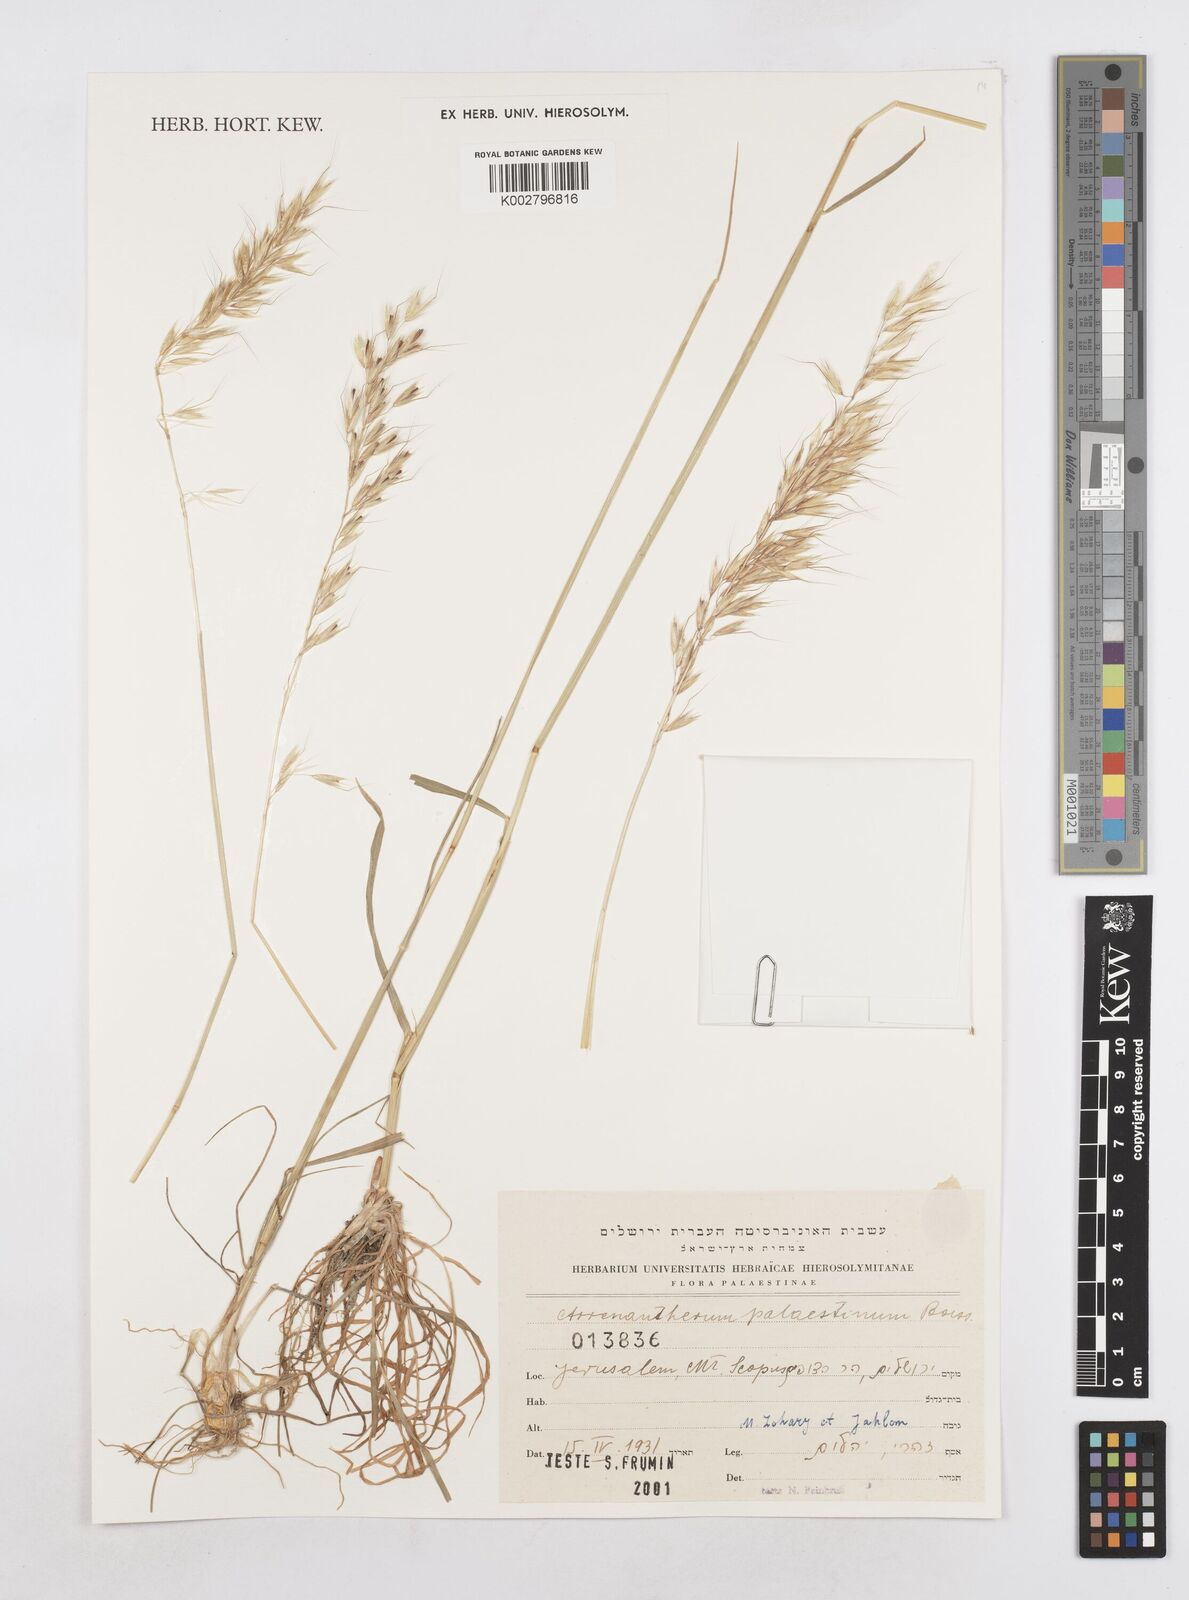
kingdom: Plantae
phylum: Tracheophyta
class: Liliopsida
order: Poales
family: Poaceae
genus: Arrhenatherum
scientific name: Arrhenatherum palaestinum
